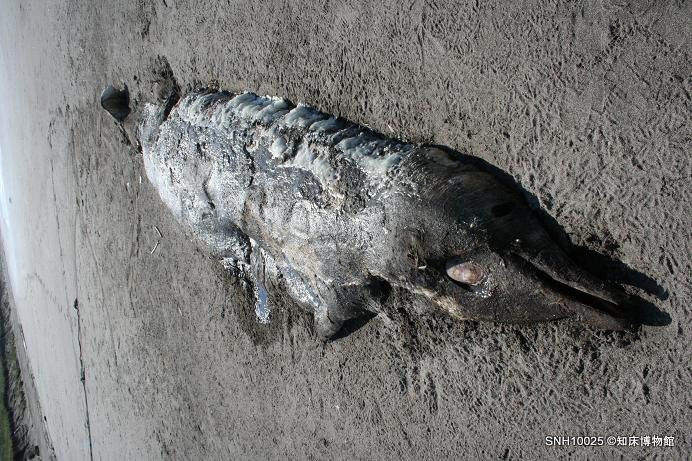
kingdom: Animalia
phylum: Chordata
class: Mammalia
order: Cetacea
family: Hyperoodontidae
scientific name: Hyperoodontidae
